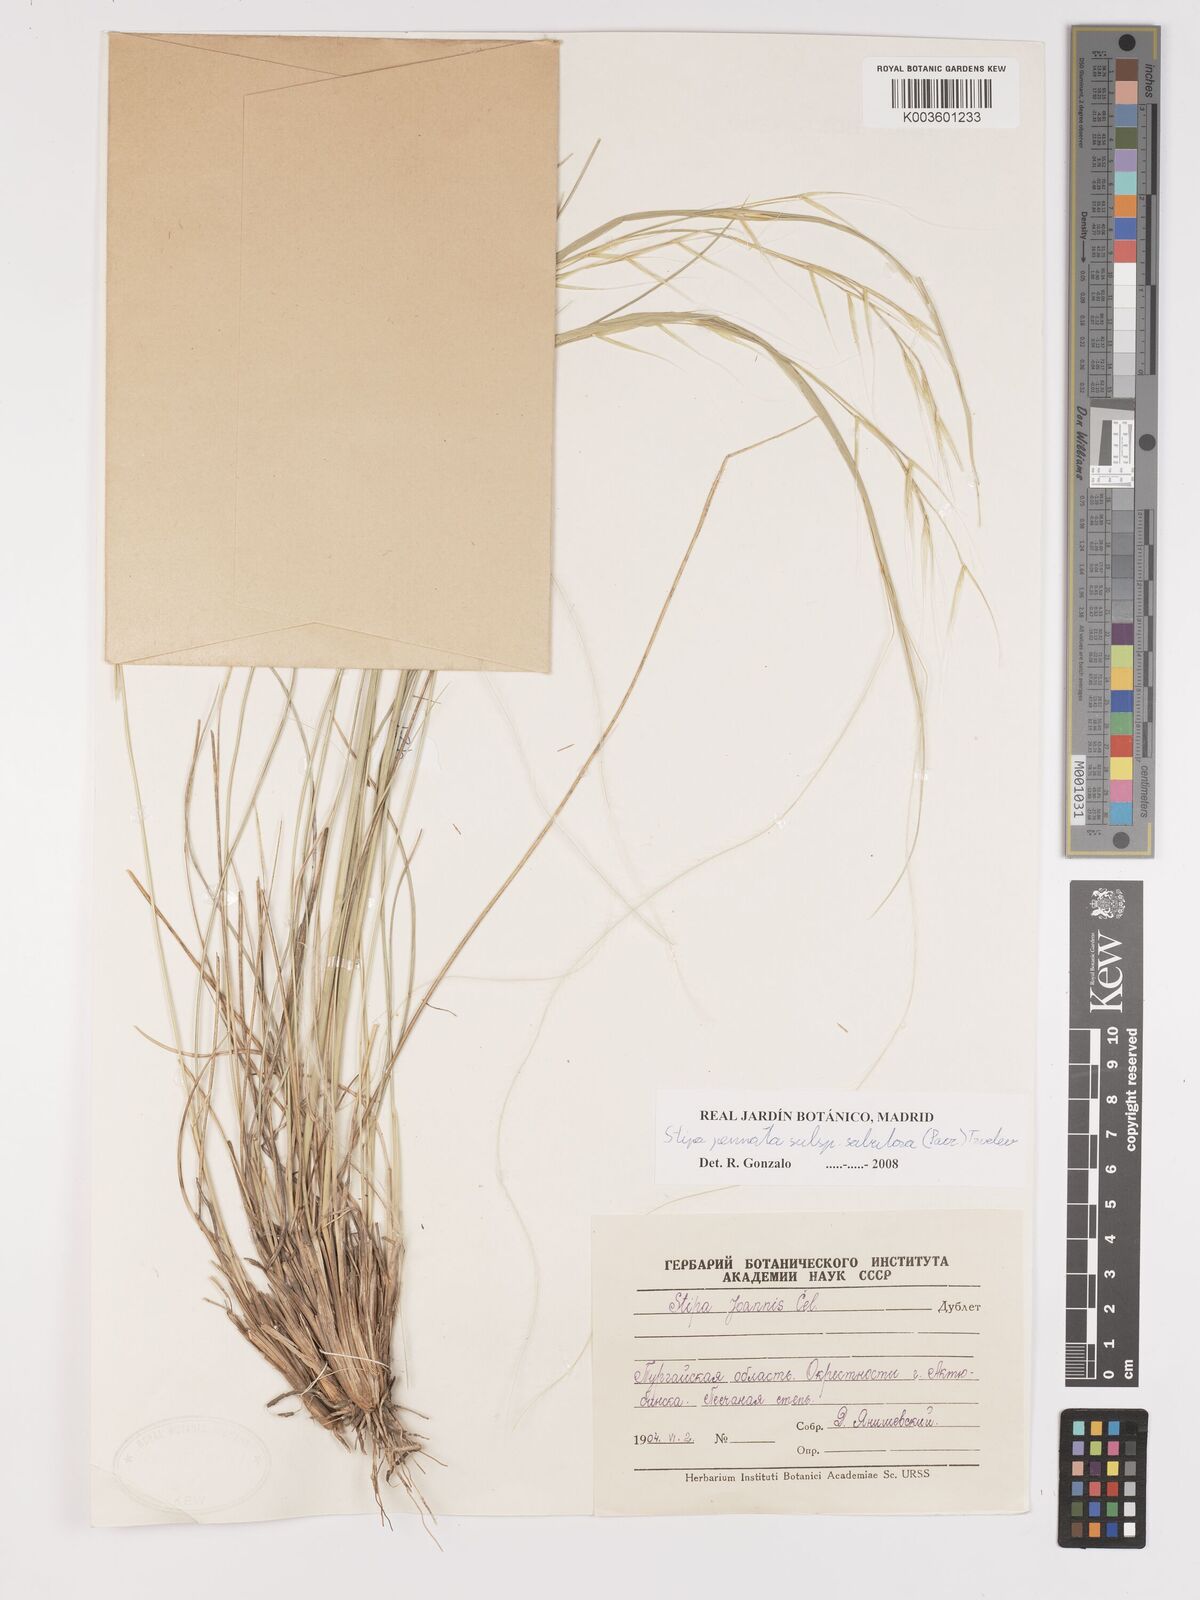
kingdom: Plantae
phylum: Tracheophyta
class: Liliopsida
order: Poales
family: Poaceae
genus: Stipa
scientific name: Stipa pennata
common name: European feather grass
